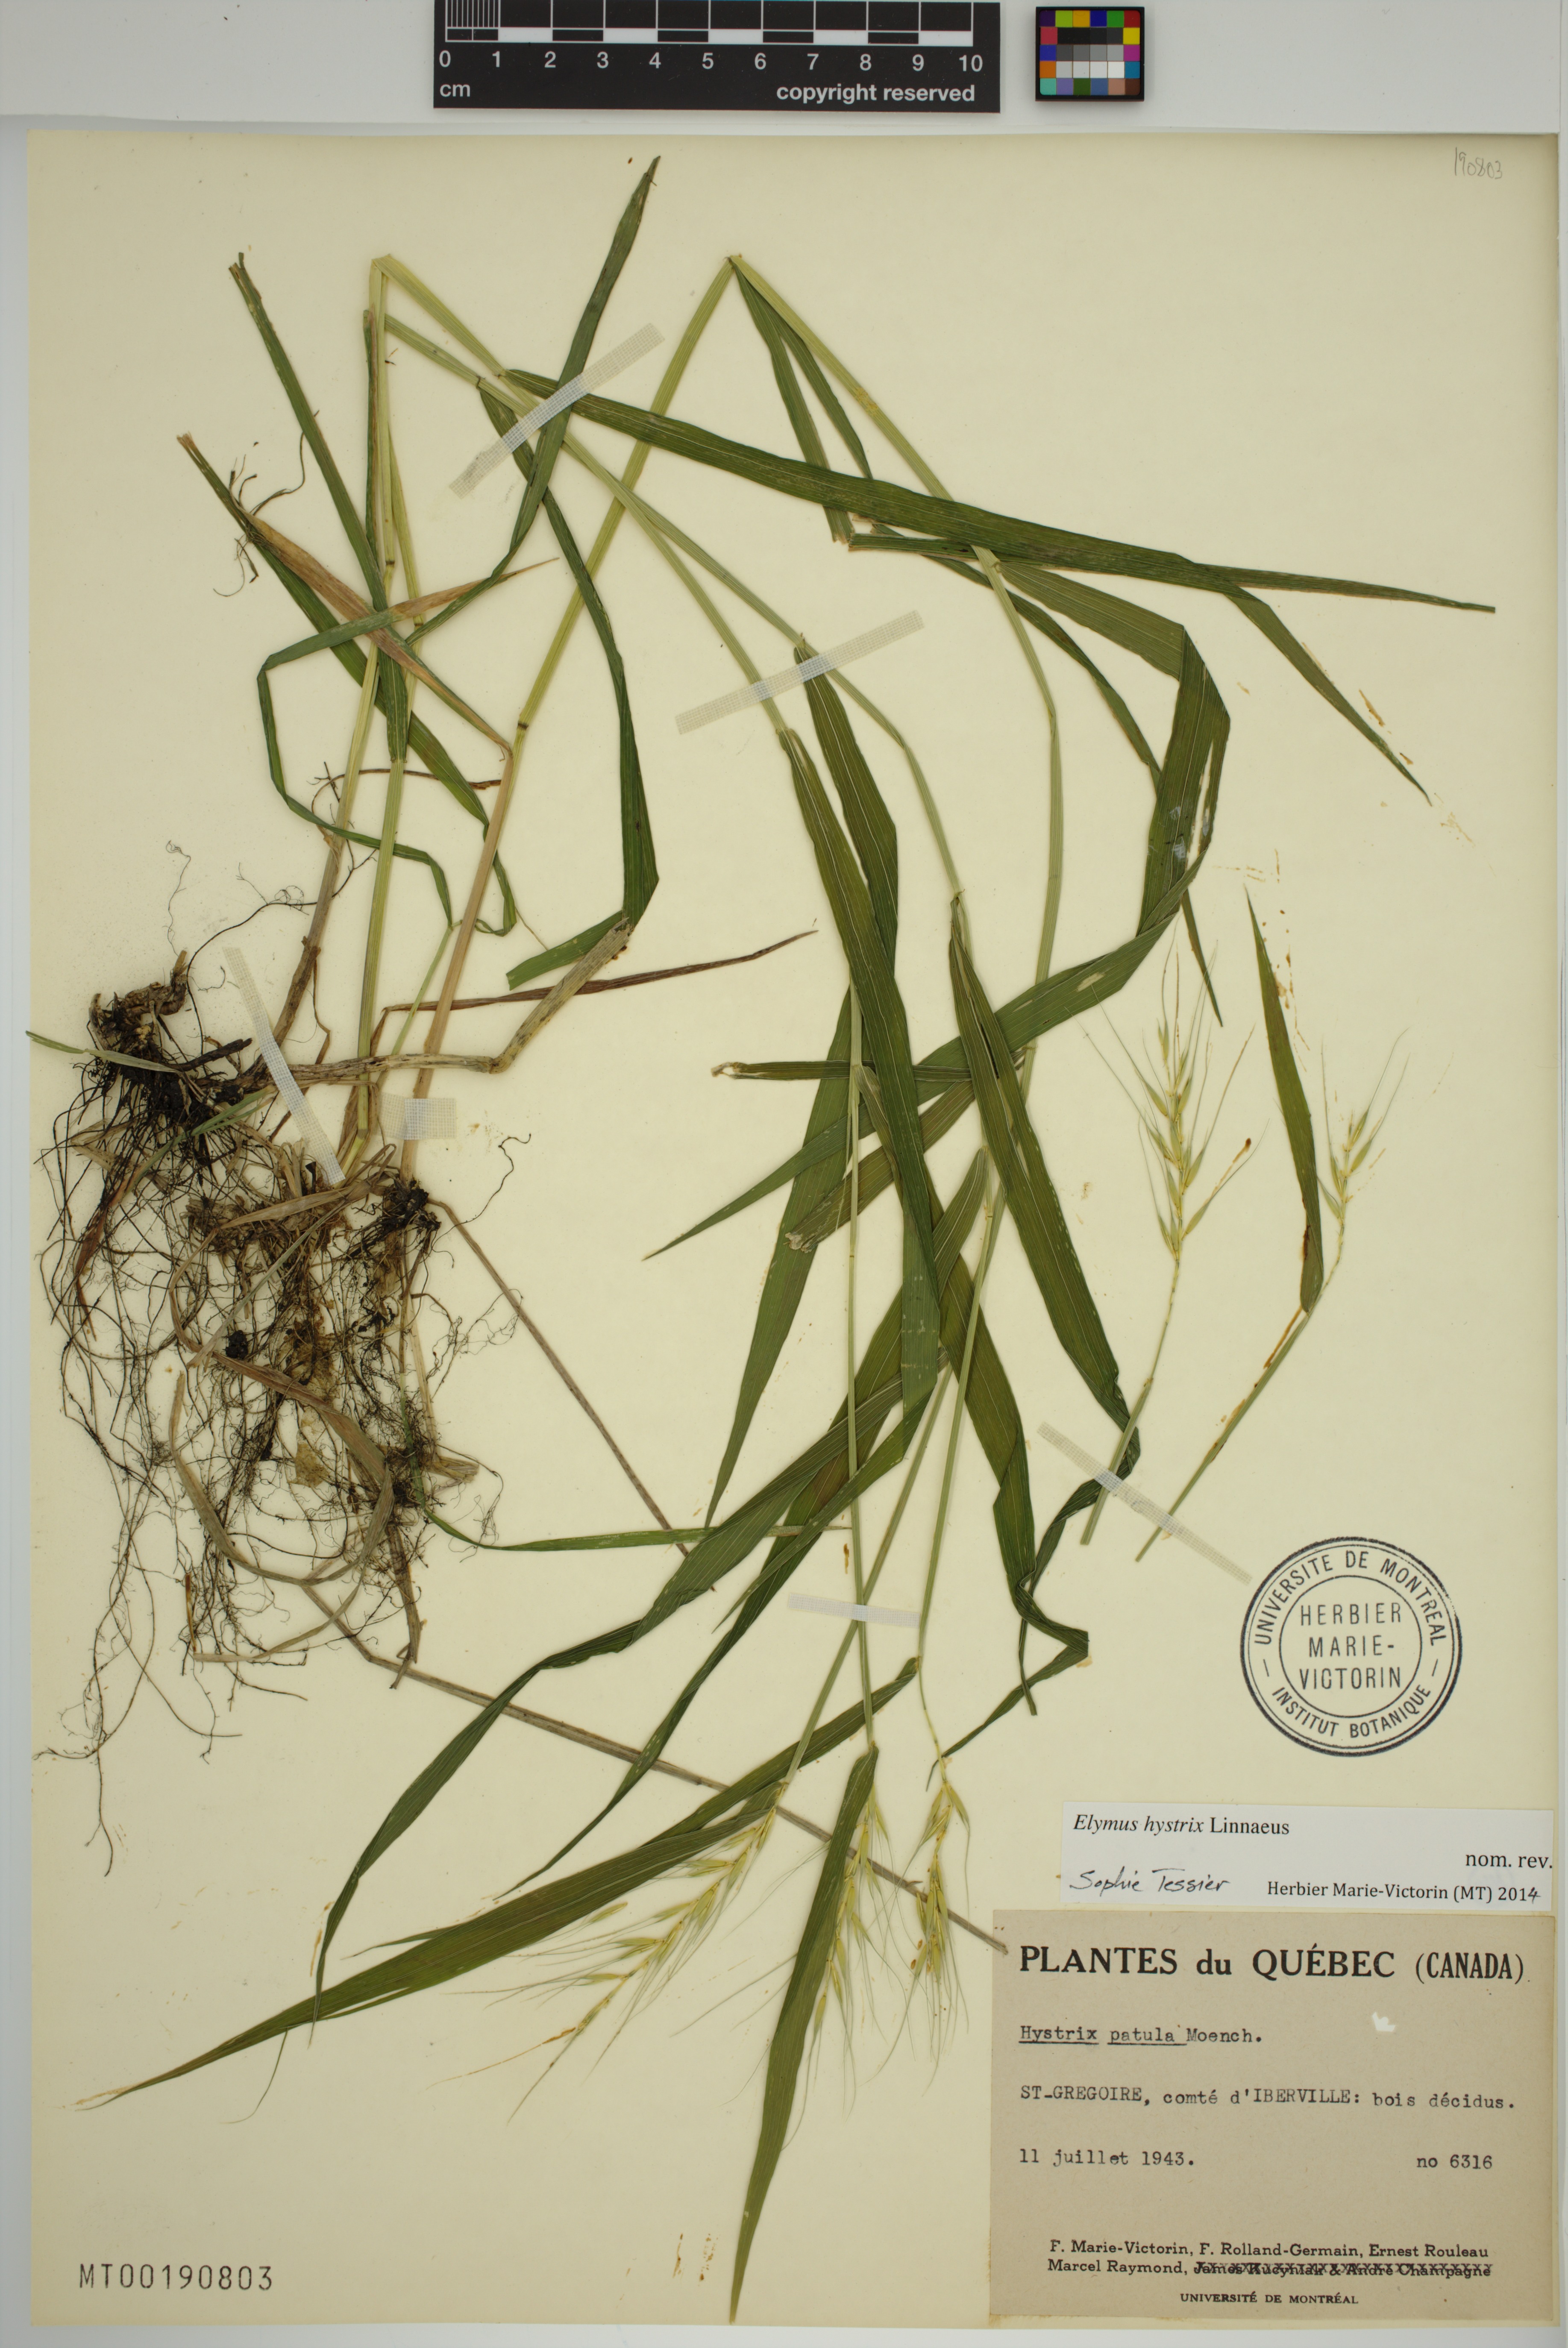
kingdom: Plantae
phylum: Tracheophyta
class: Liliopsida
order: Poales
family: Poaceae
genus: Elymus
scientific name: Elymus hystrix
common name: Bottlebrush grass
